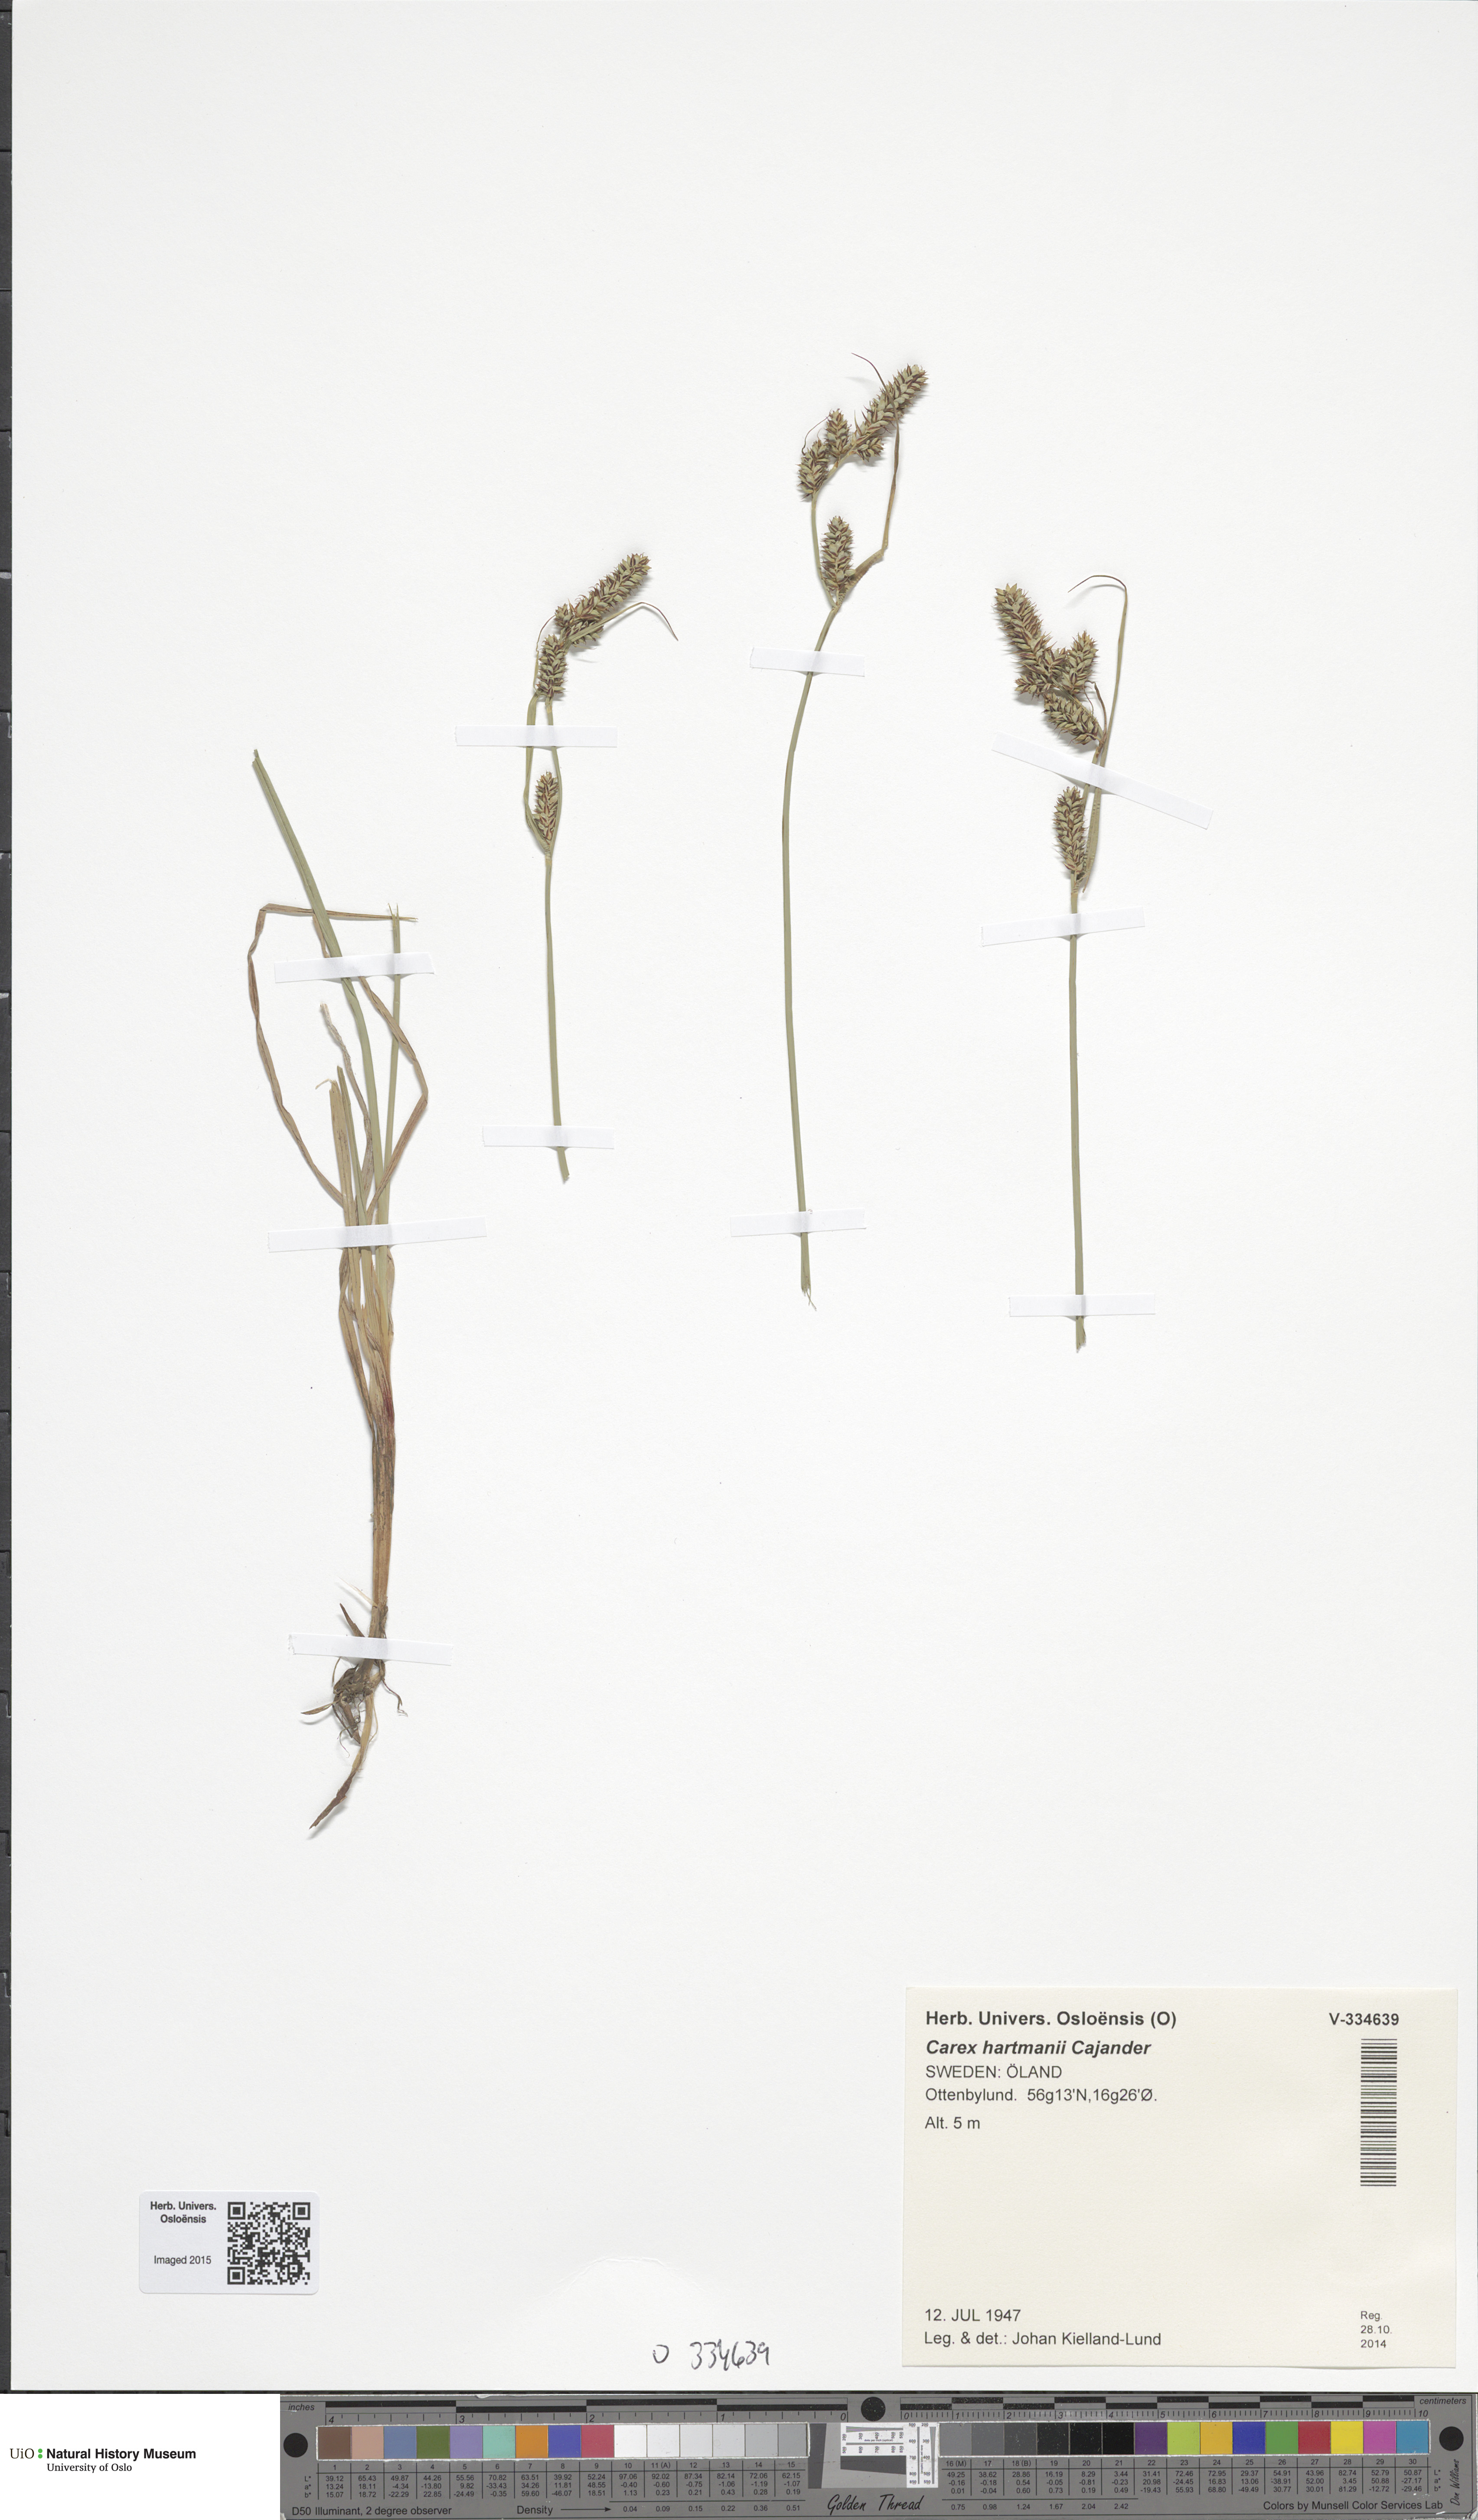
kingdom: Plantae
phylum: Tracheophyta
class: Liliopsida
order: Poales
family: Cyperaceae
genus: Carex
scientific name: Carex hartmaniorum
